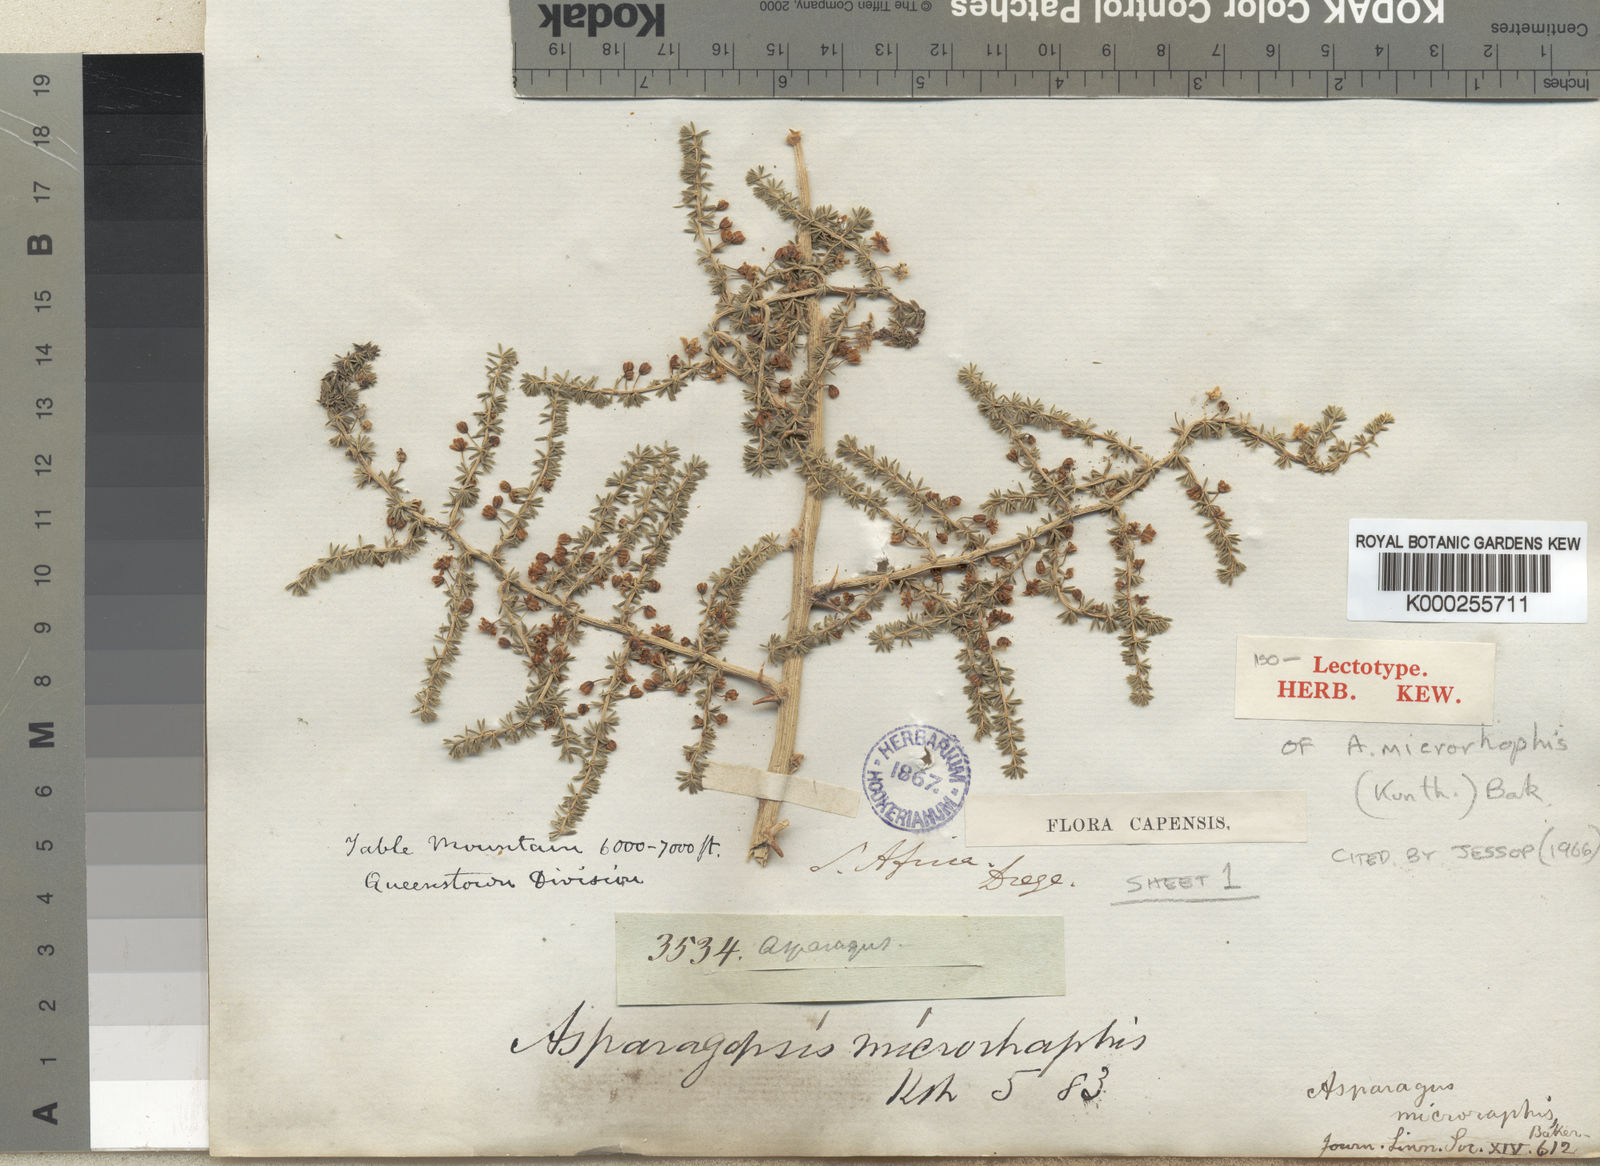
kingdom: Plantae
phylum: Tracheophyta
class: Liliopsida
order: Asparagales
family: Asparagaceae
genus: Asparagus
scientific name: Asparagus microraphis
